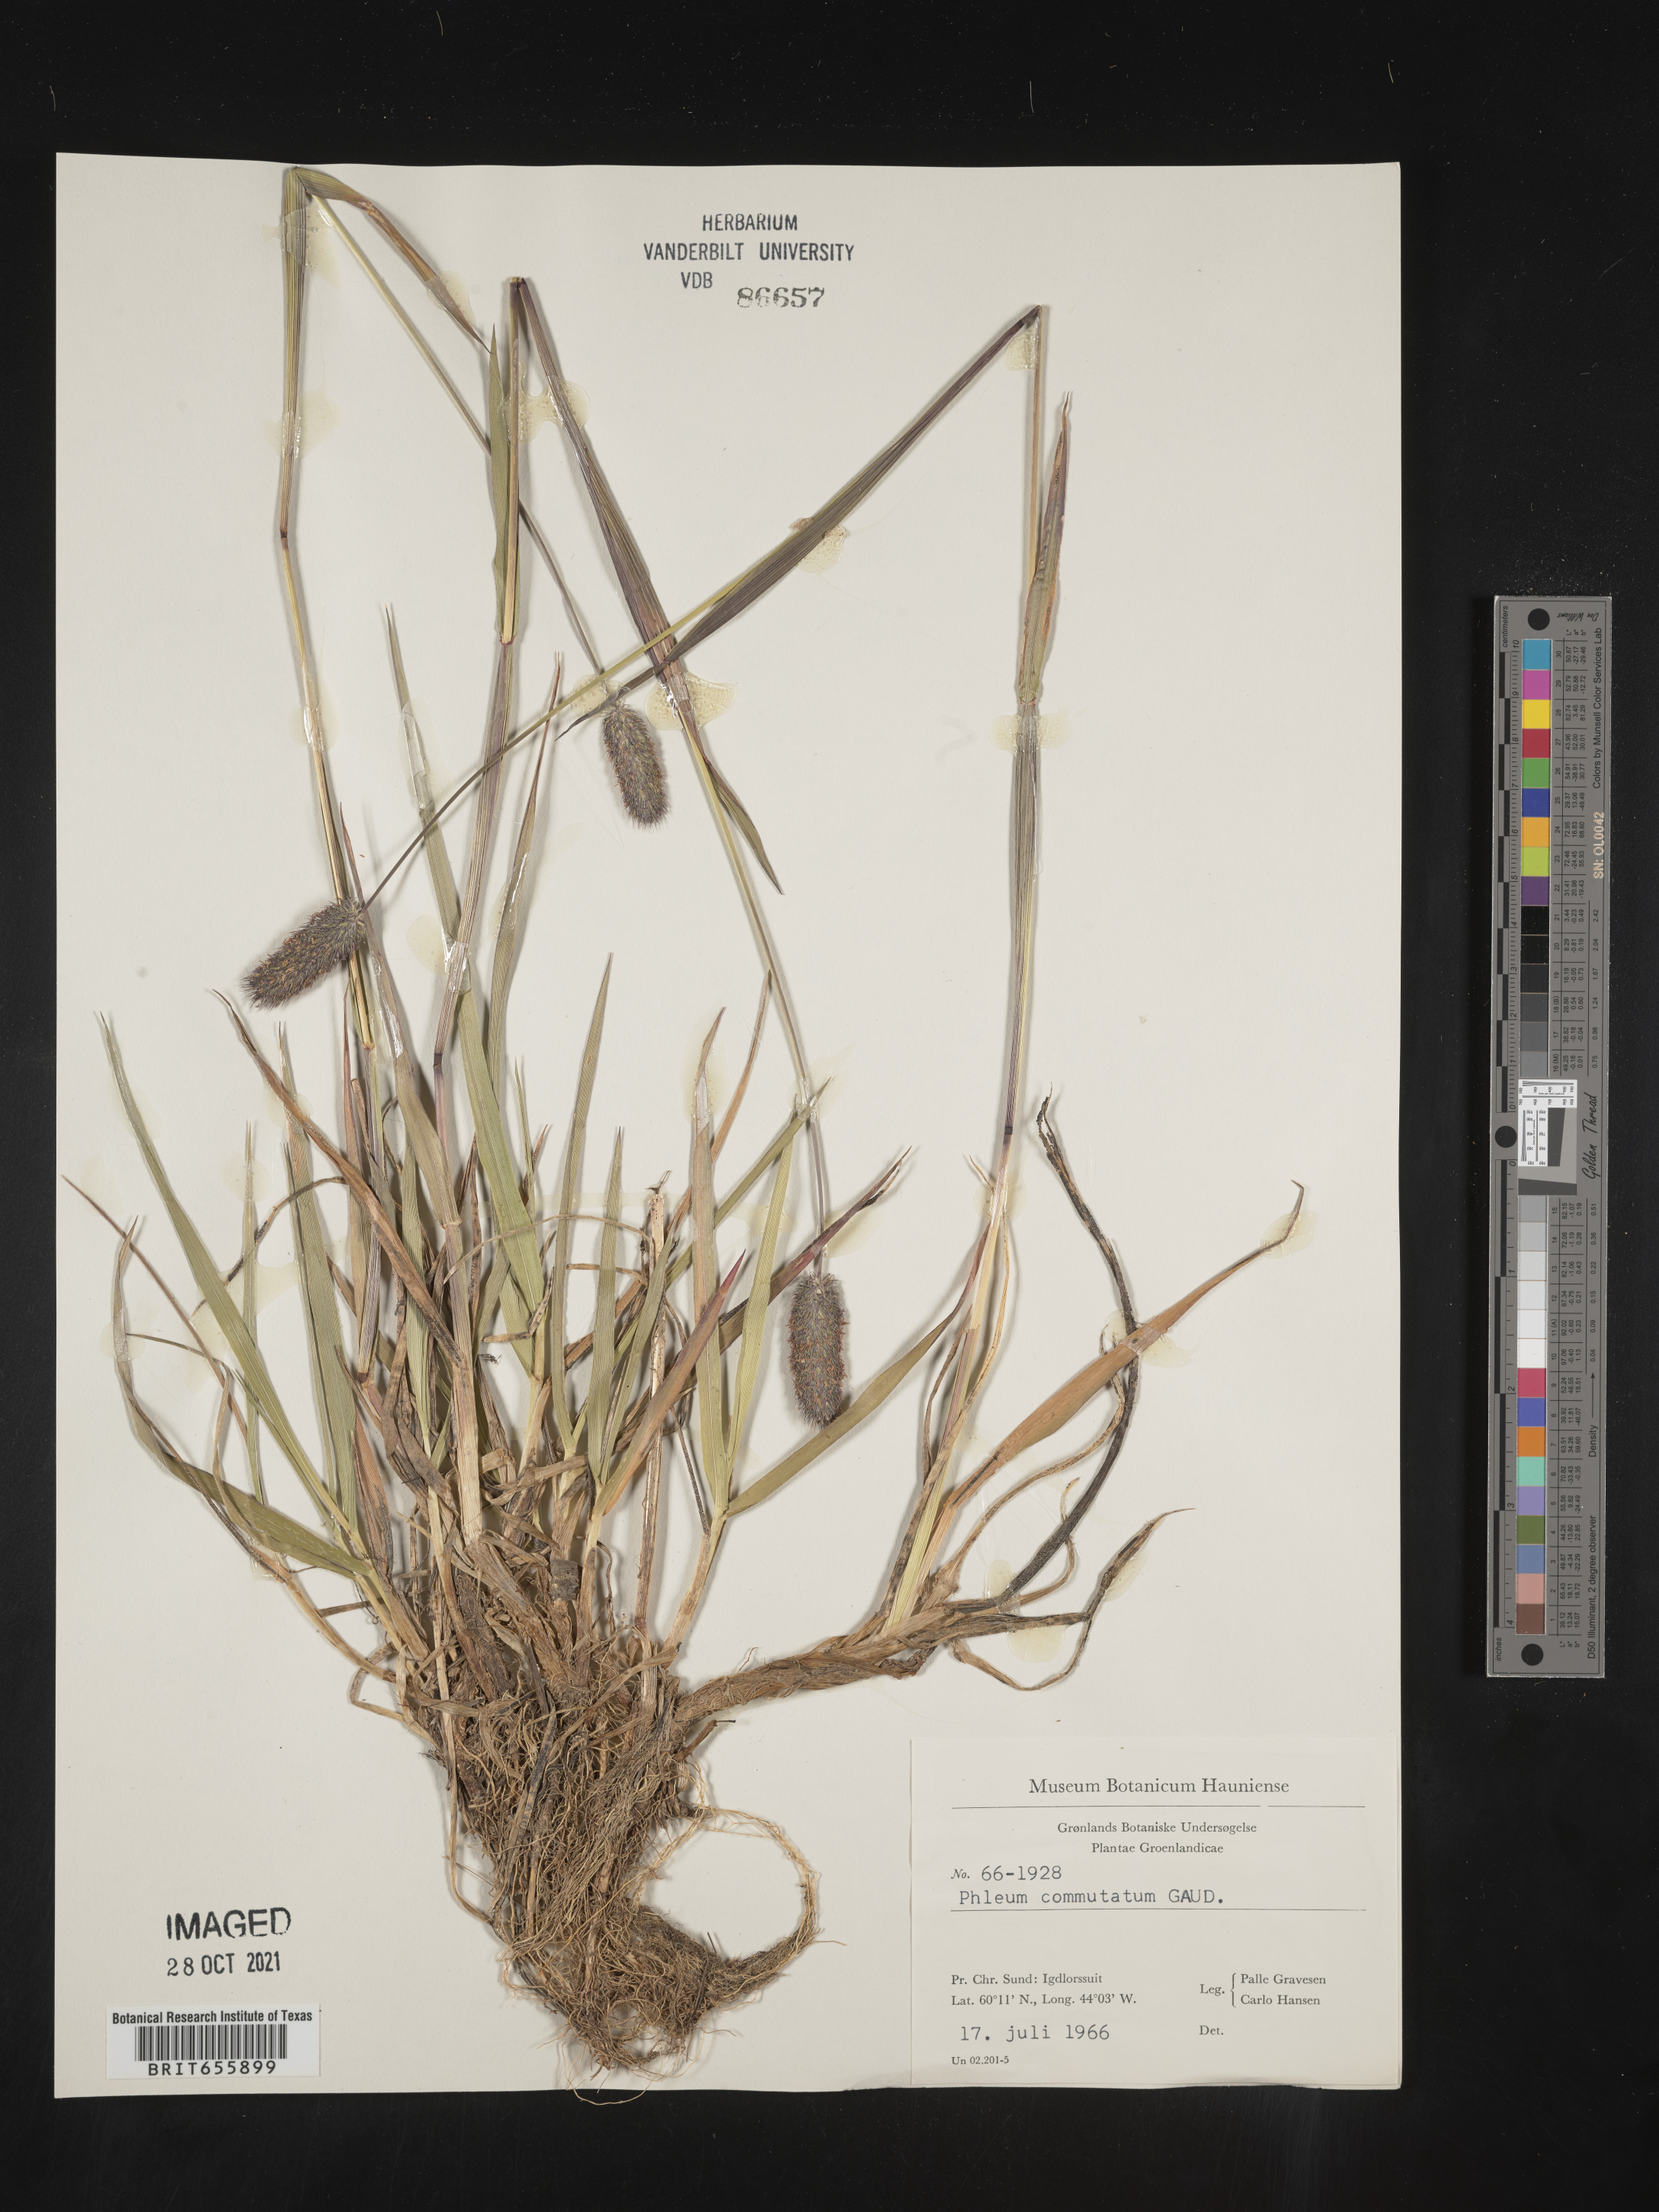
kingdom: Plantae
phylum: Tracheophyta
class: Liliopsida
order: Poales
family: Poaceae
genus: Phleum
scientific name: Phleum
